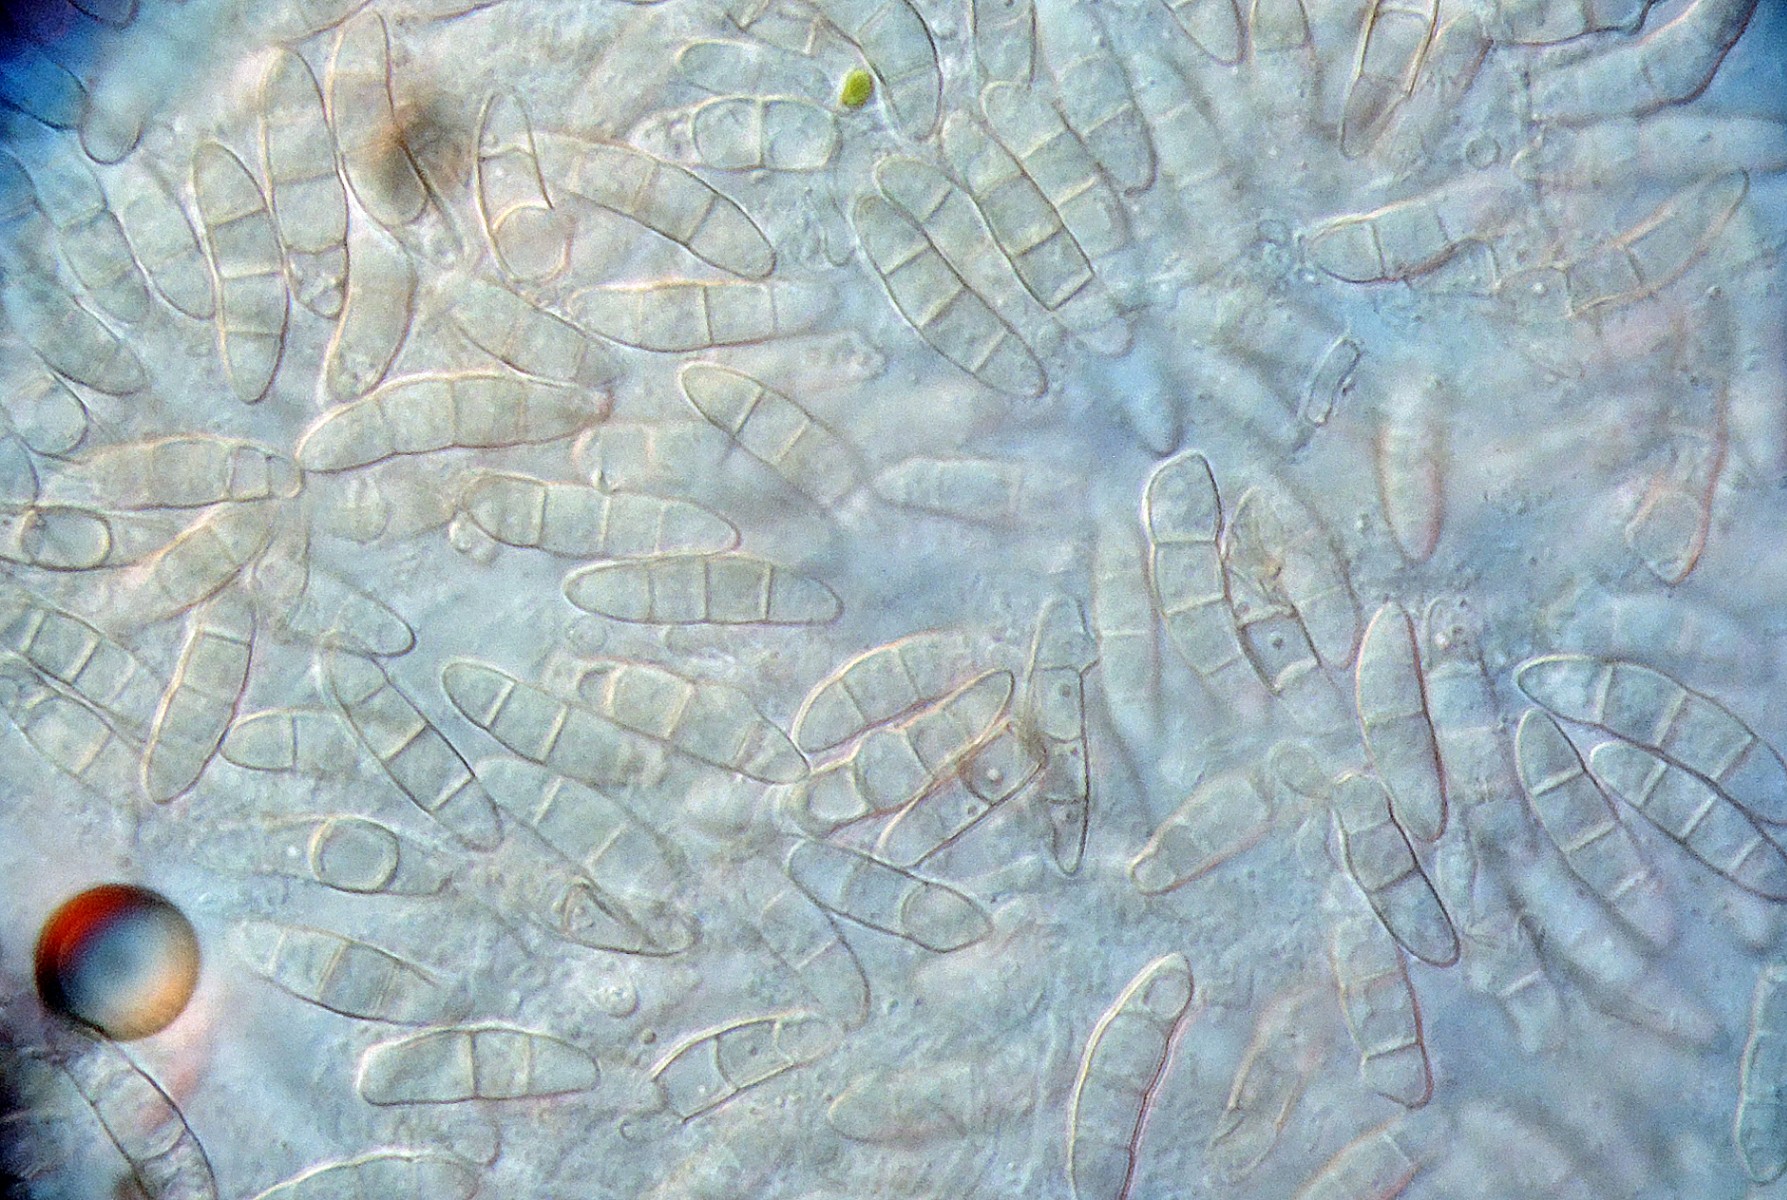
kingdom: Fungi
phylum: Ascomycota
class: Sordariomycetes
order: Hypocreales
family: Nectriaceae
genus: Gibberella
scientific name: Gibberella flacca
